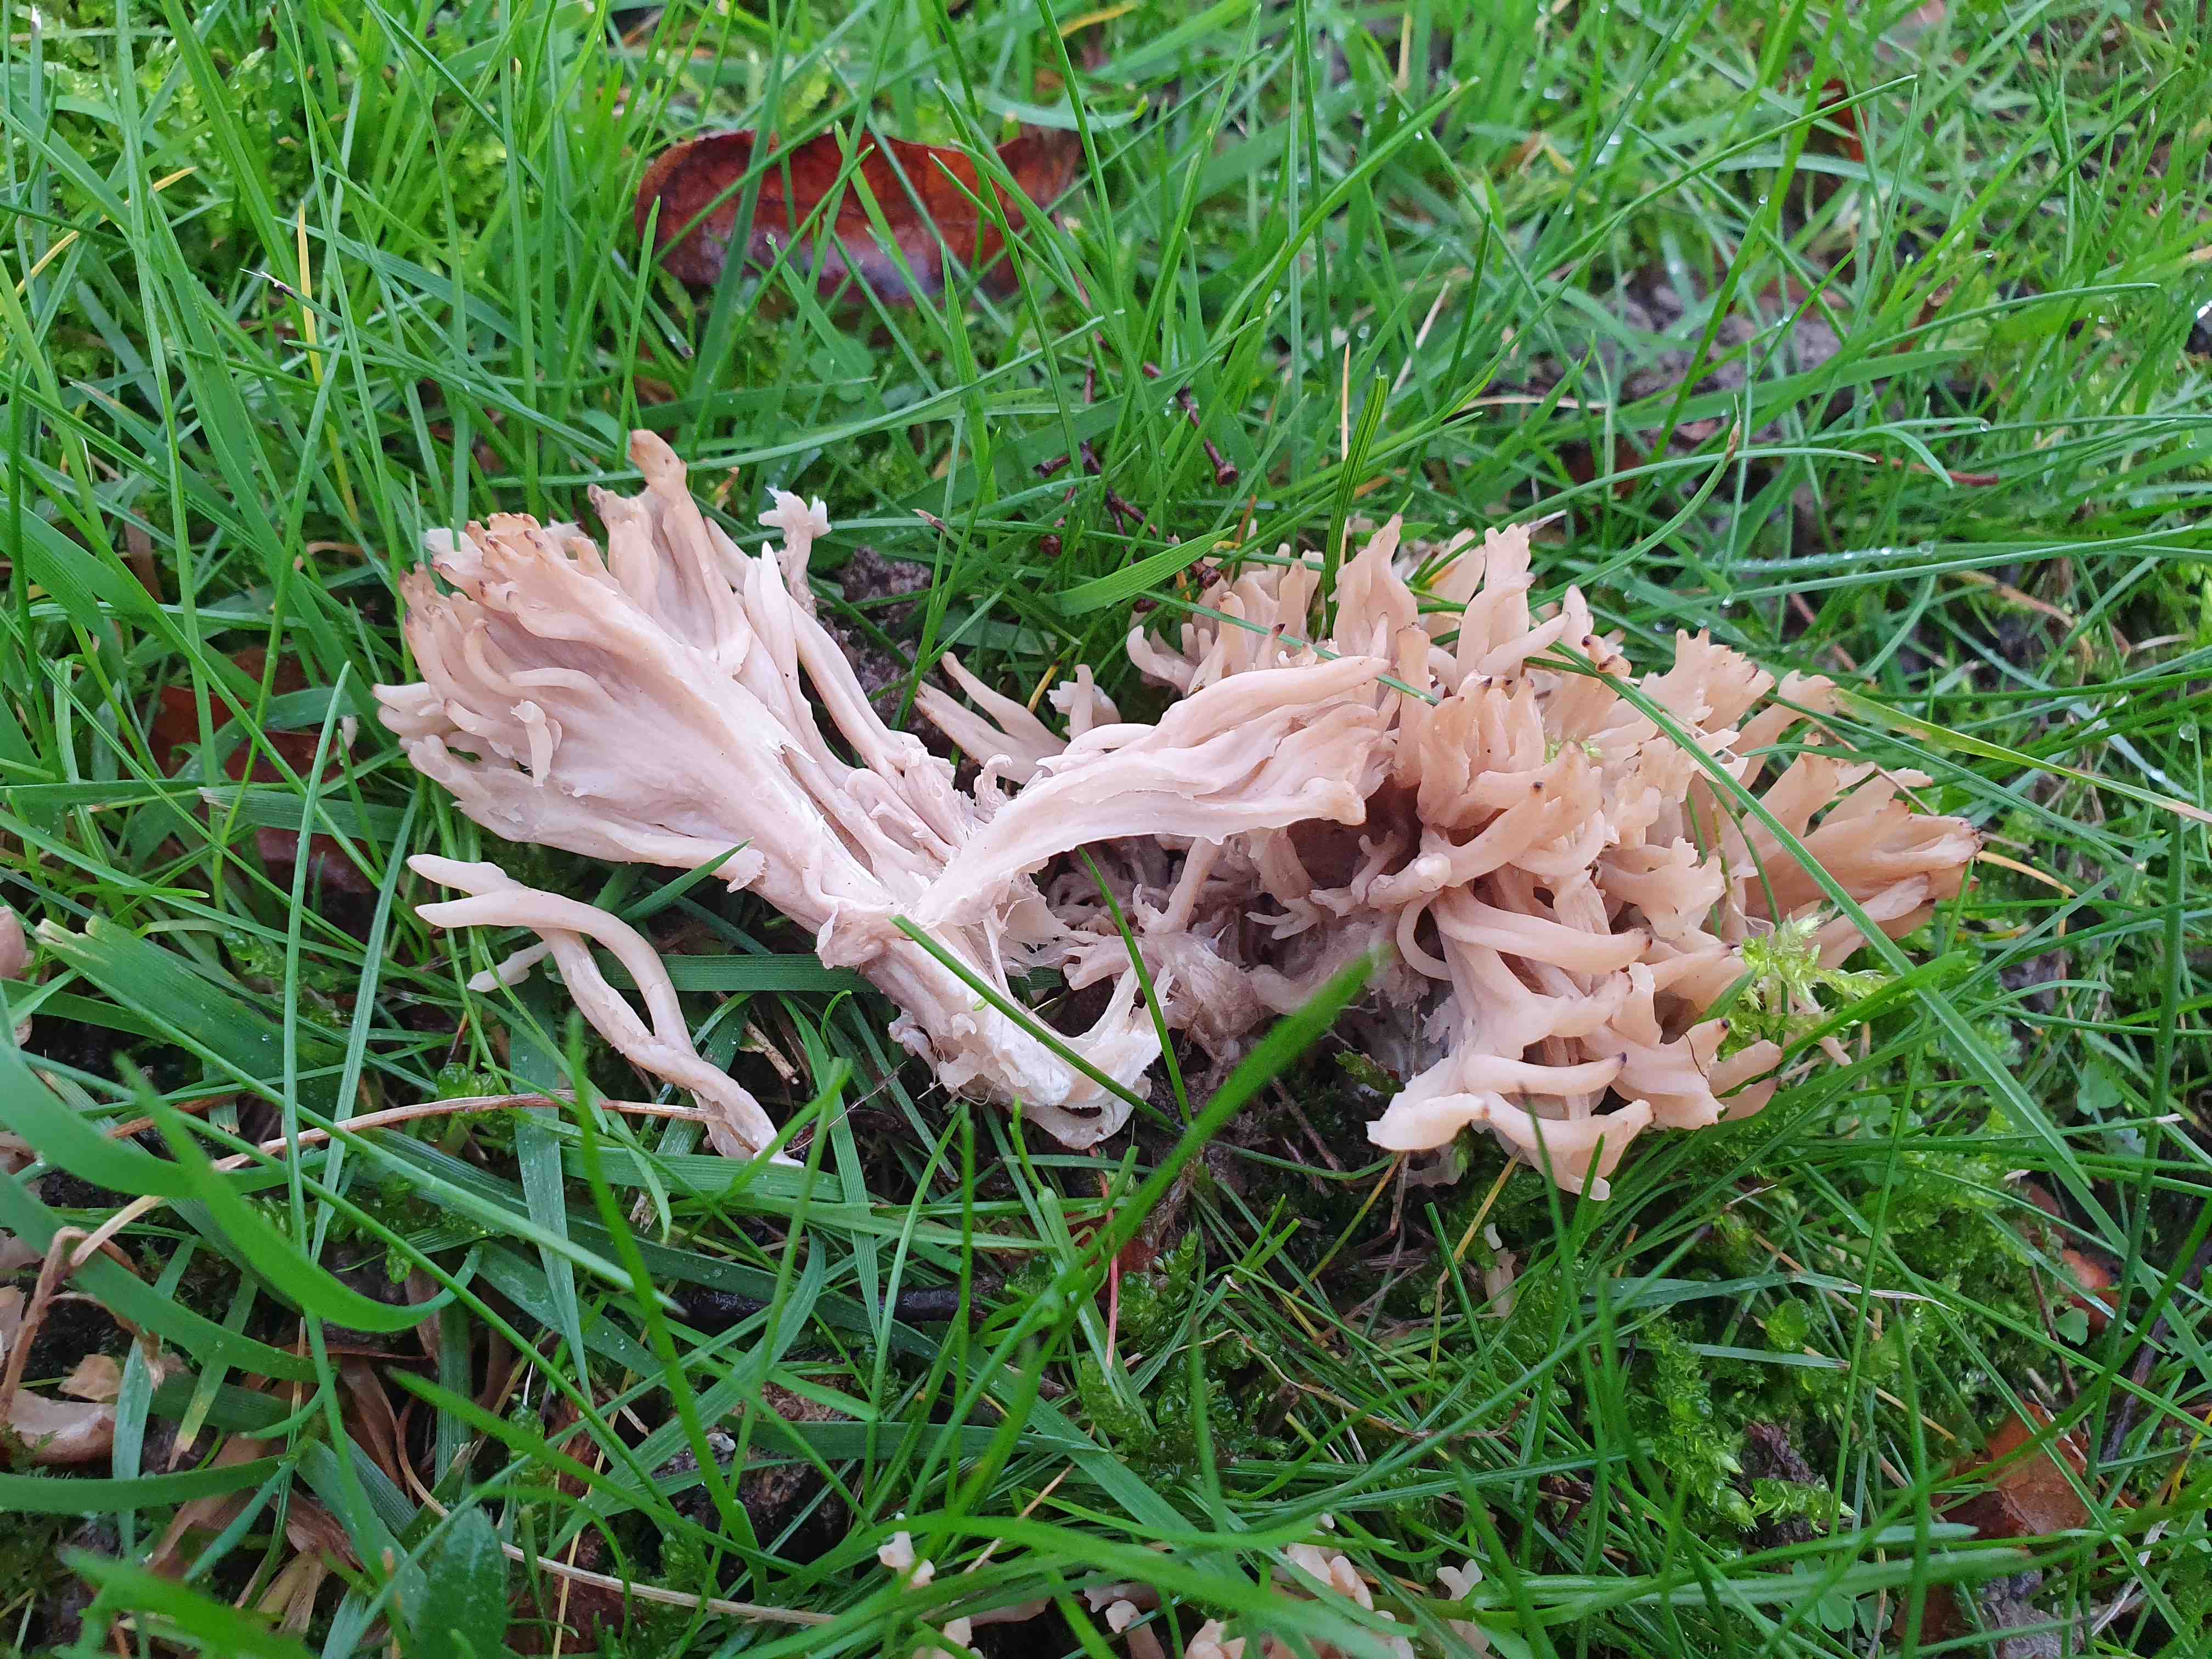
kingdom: Fungi
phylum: Basidiomycota
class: Agaricomycetes
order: Cantharellales
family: Hydnaceae
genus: Clavulina
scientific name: Clavulina
